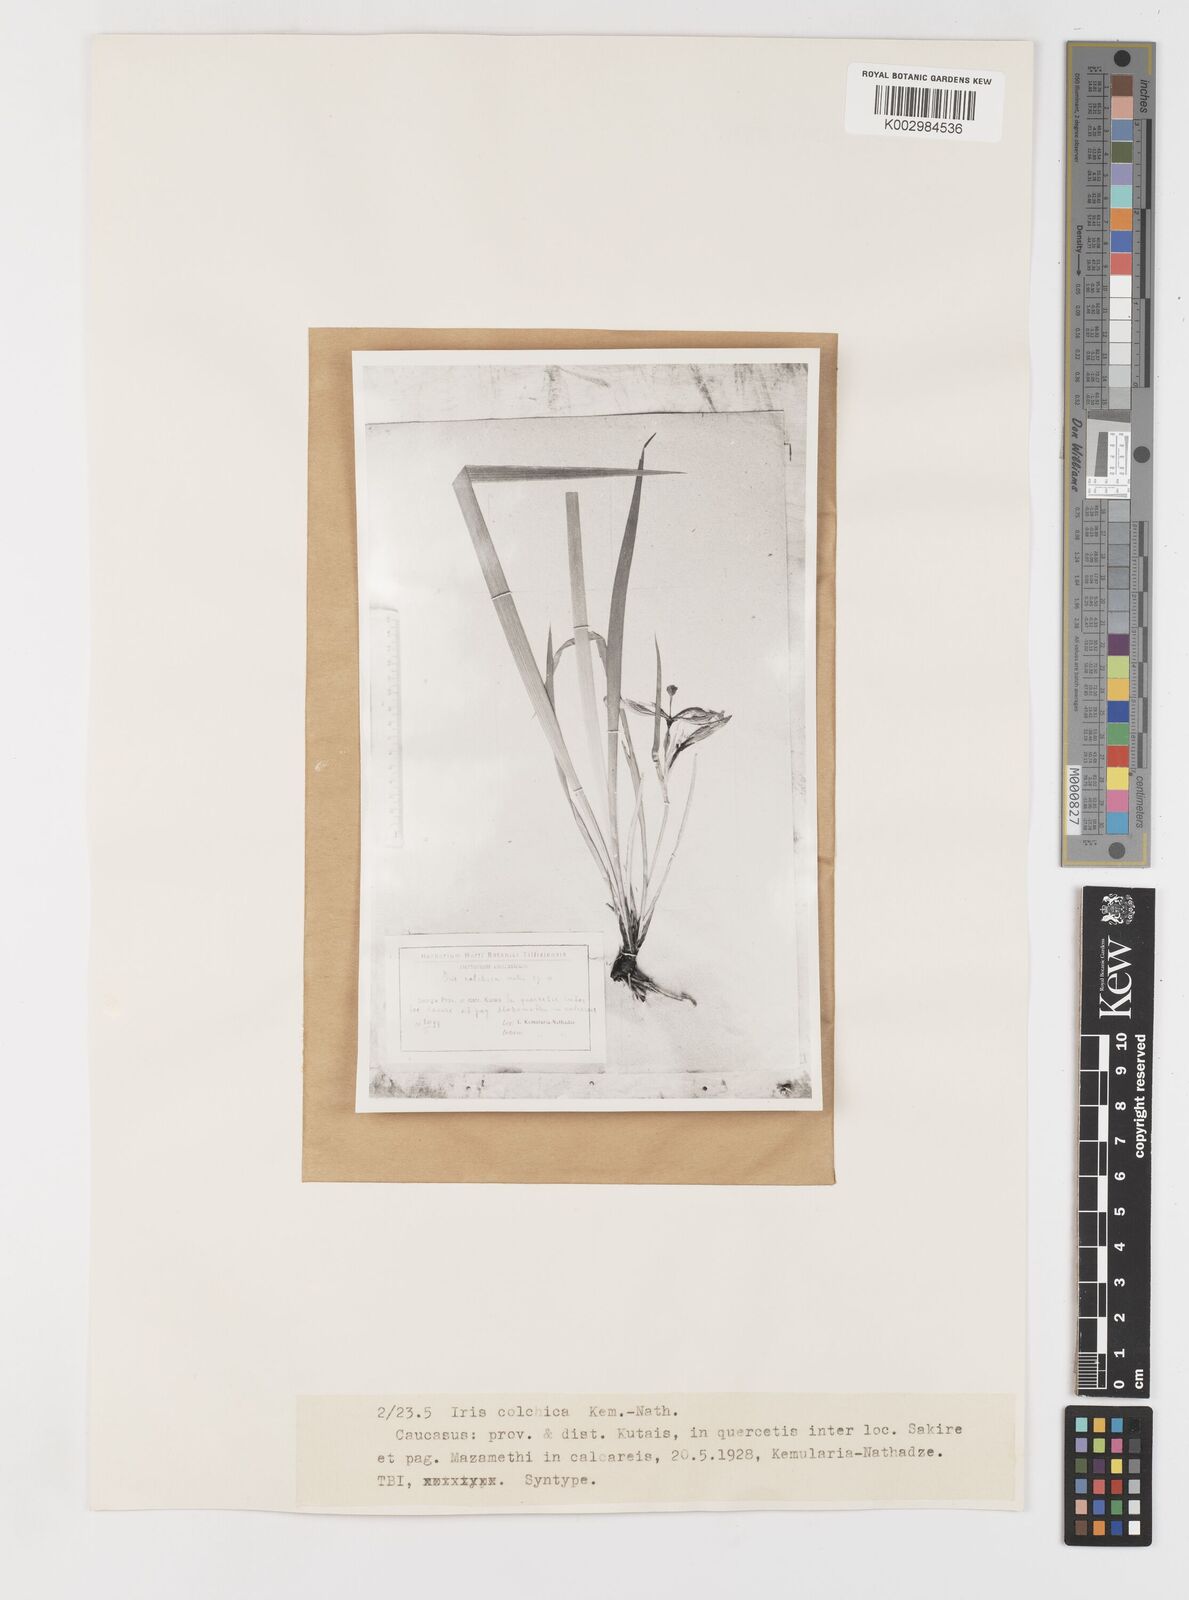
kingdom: Plantae
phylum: Tracheophyta
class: Liliopsida
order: Asparagales
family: Iridaceae
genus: Iris
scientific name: Iris colchica
